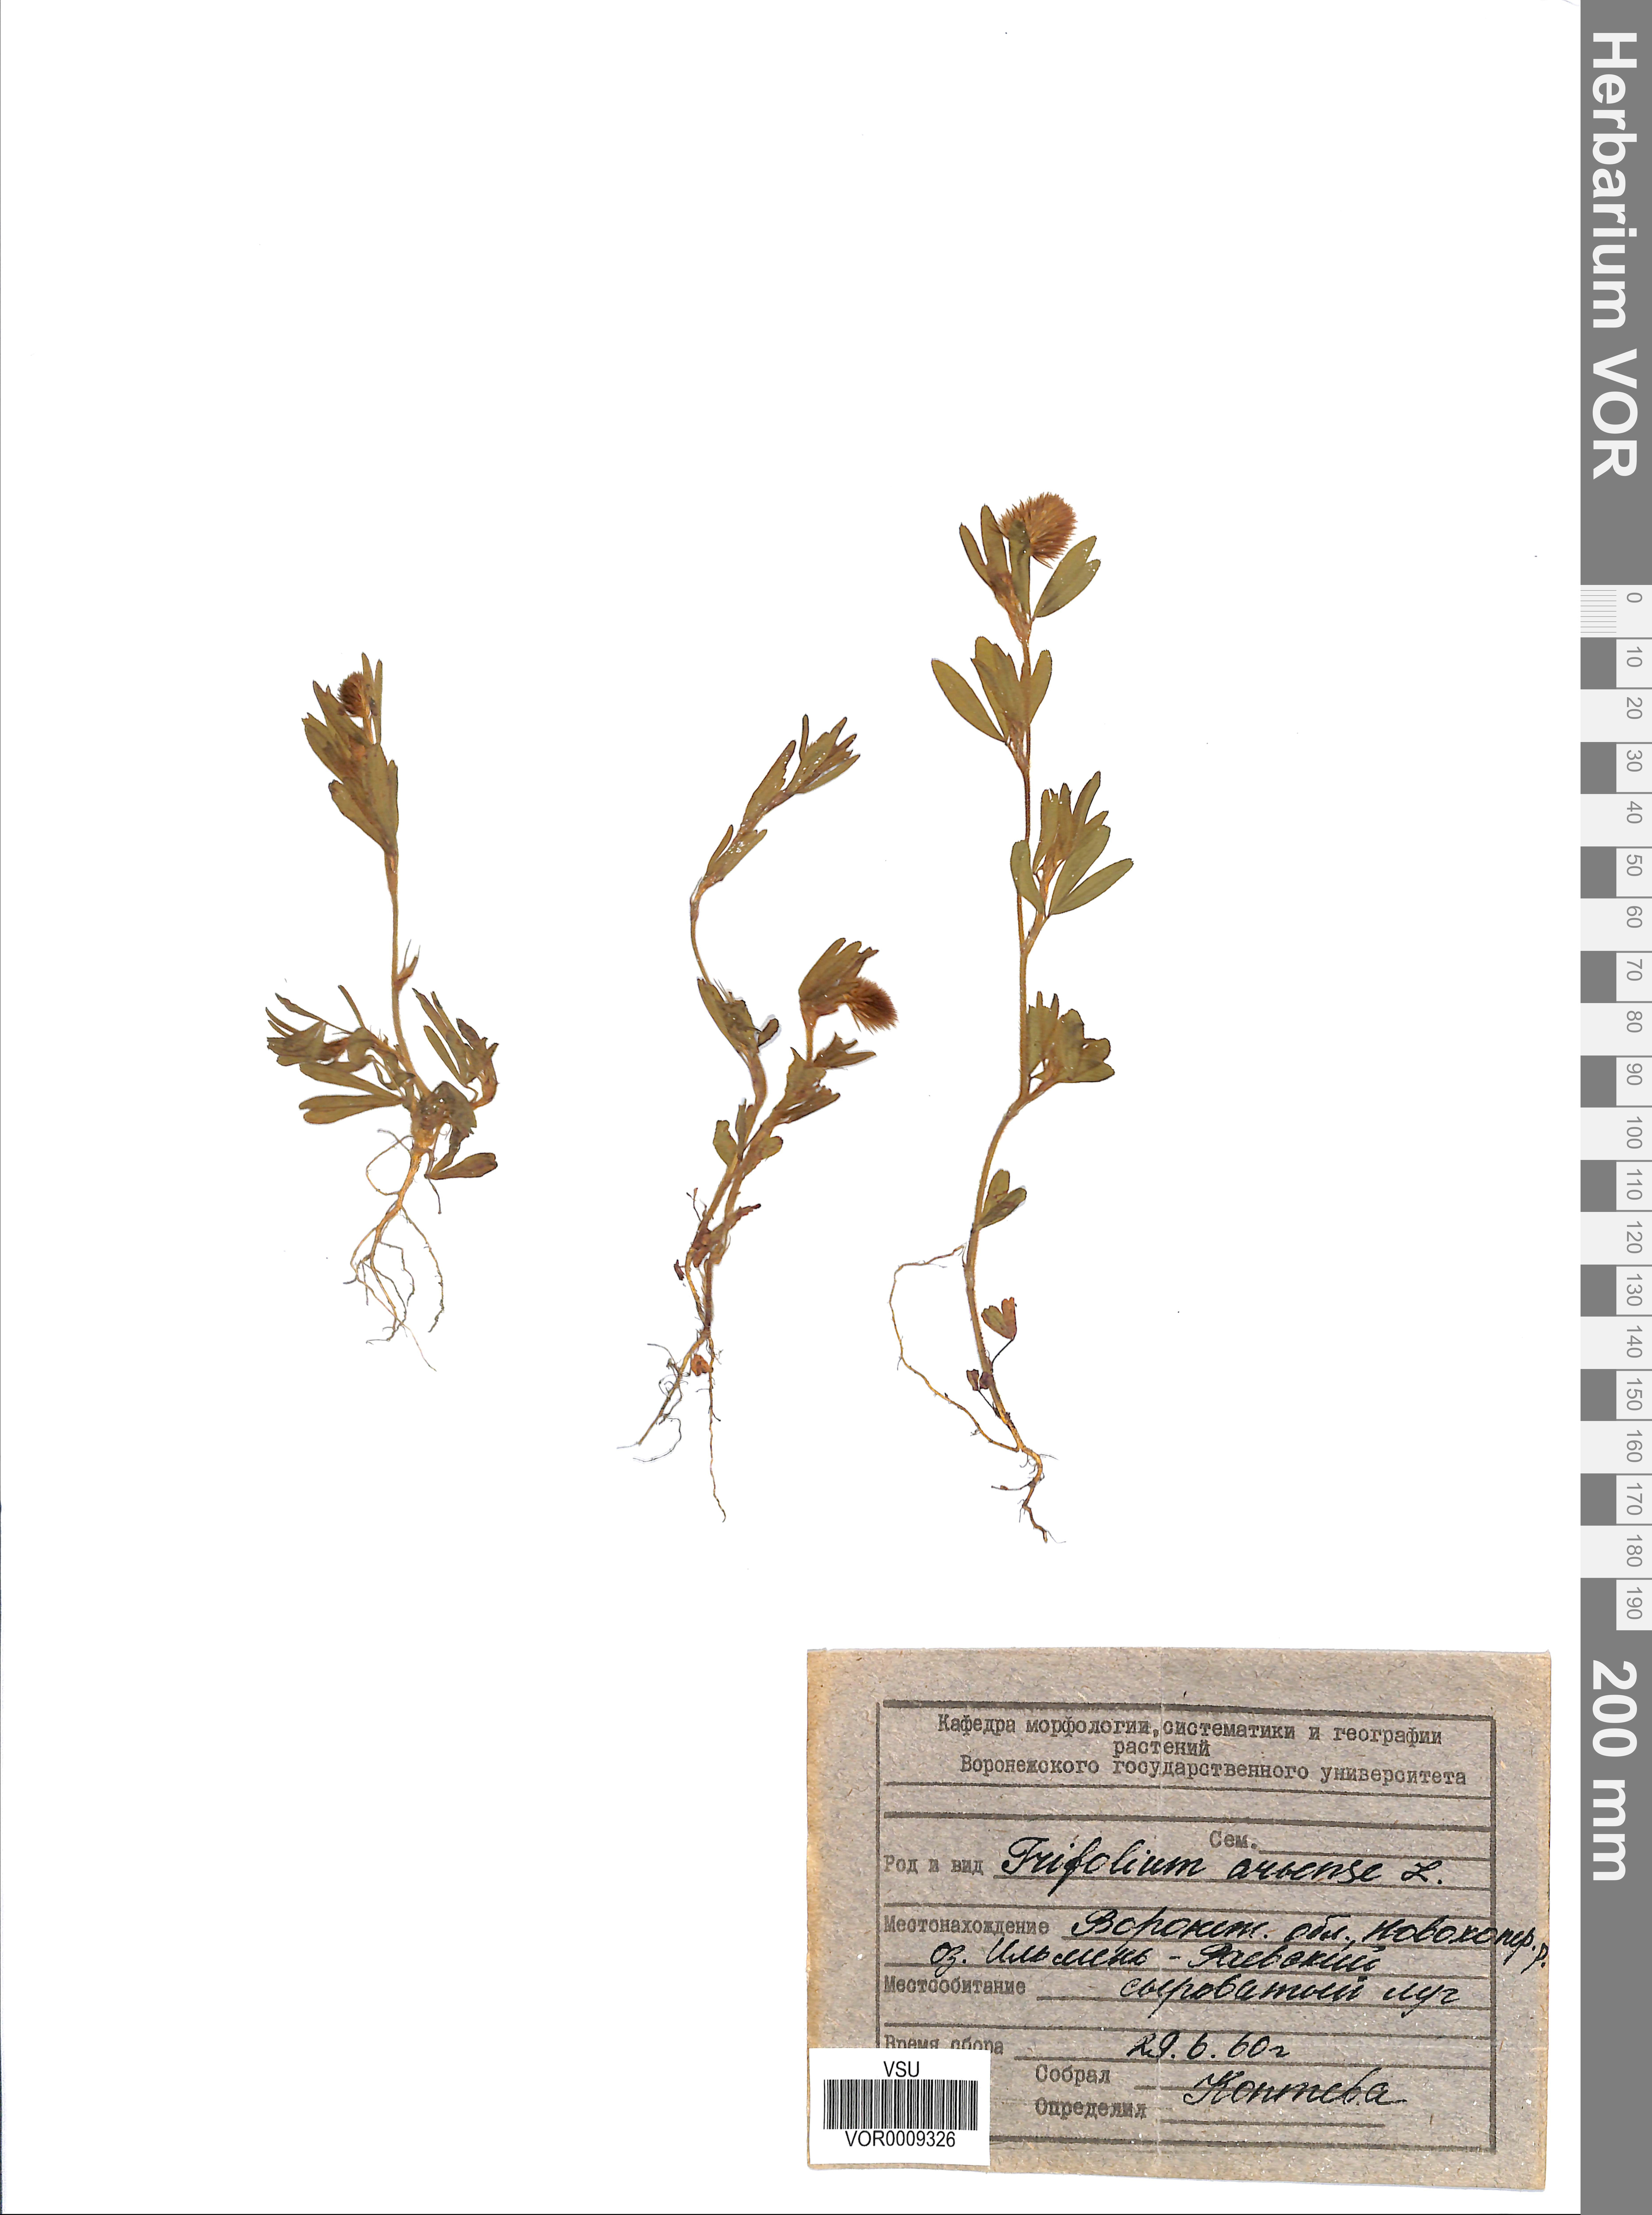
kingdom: Plantae
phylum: Tracheophyta
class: Magnoliopsida
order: Fabales
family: Fabaceae
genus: Trifolium
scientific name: Trifolium arvense
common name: Hare's-foot clover
